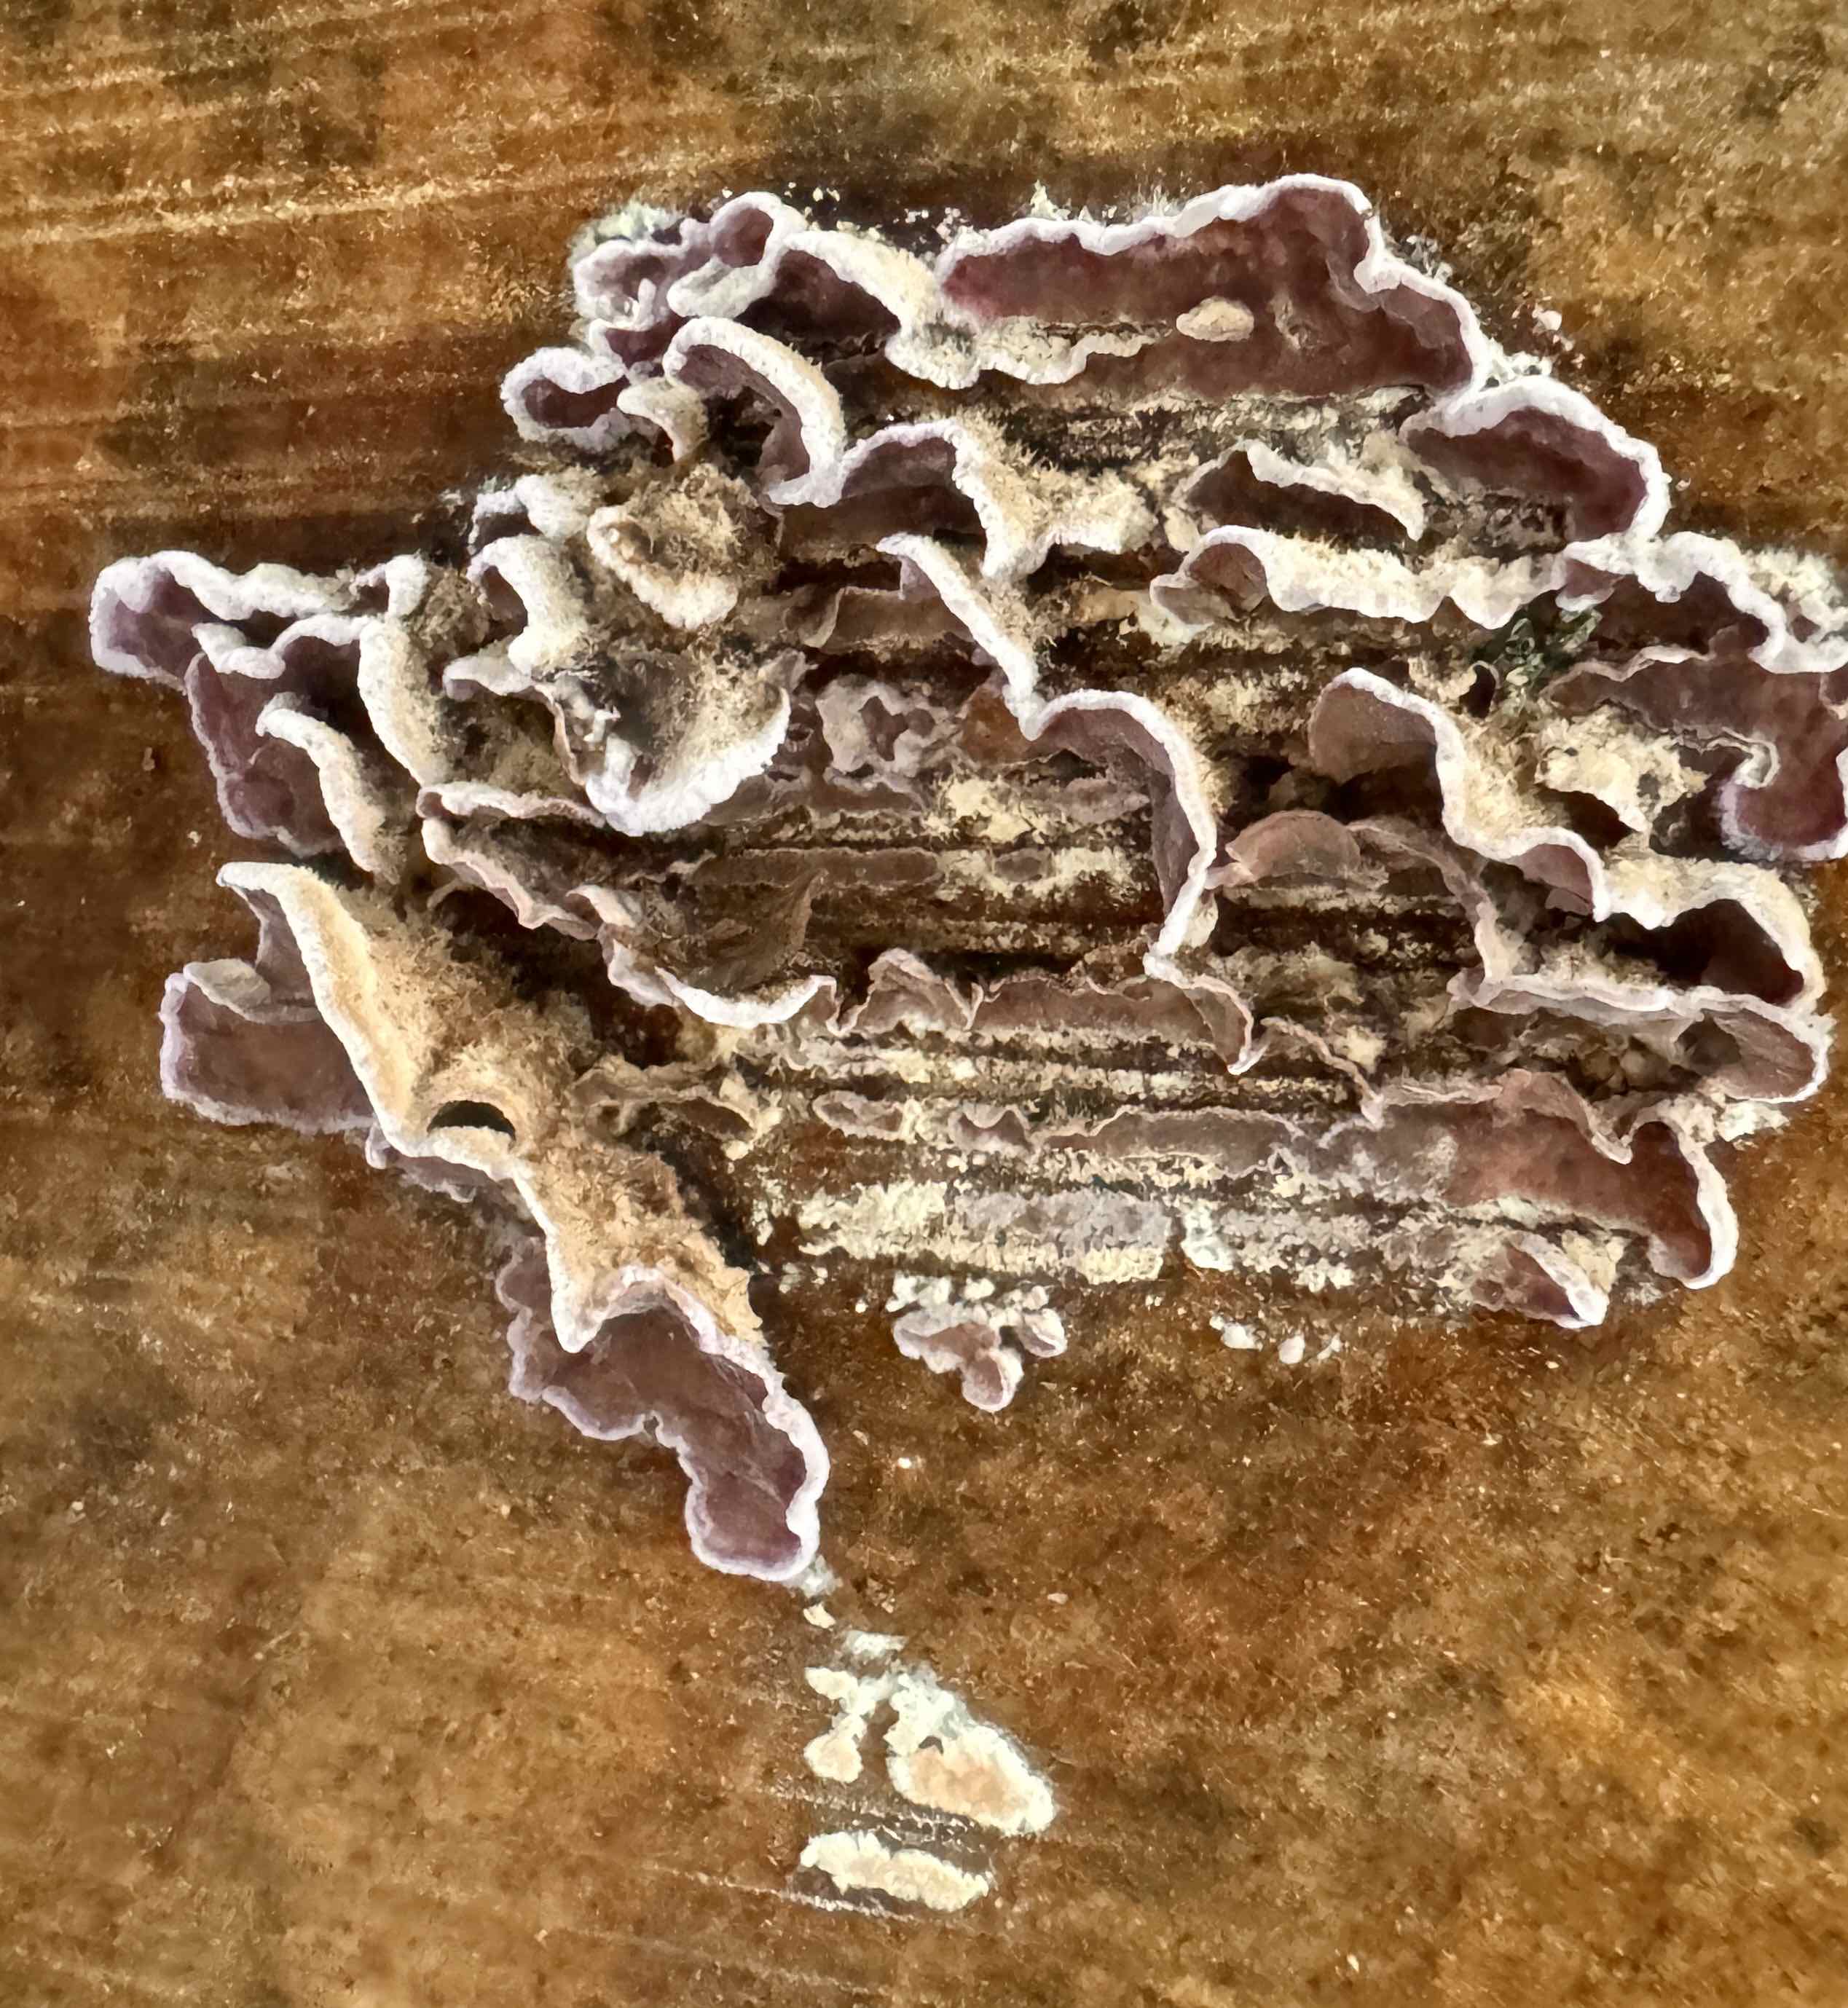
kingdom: Fungi
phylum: Basidiomycota
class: Agaricomycetes
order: Agaricales
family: Cyphellaceae
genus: Chondrostereum
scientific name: Chondrostereum purpureum
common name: purpurlædersvamp
